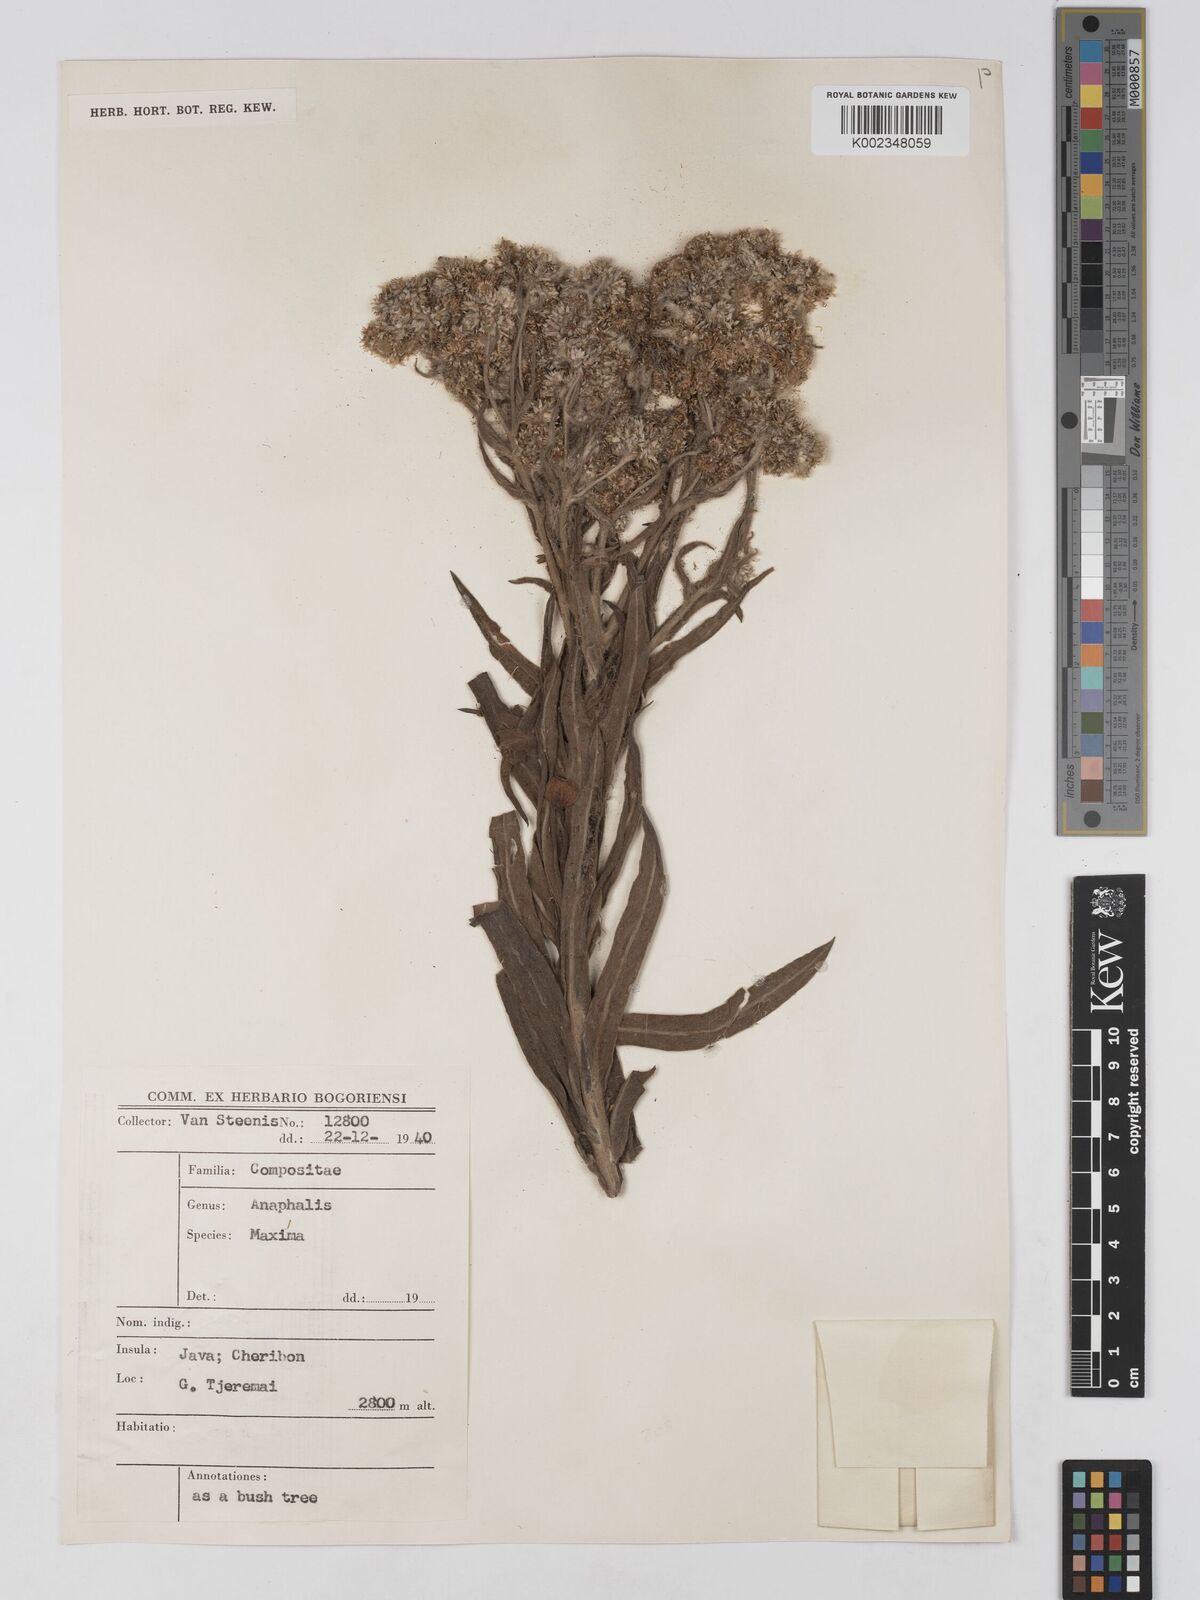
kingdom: Plantae
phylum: Tracheophyta
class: Magnoliopsida
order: Asterales
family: Asteraceae
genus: Anaphalis
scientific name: Anaphalis maxima
